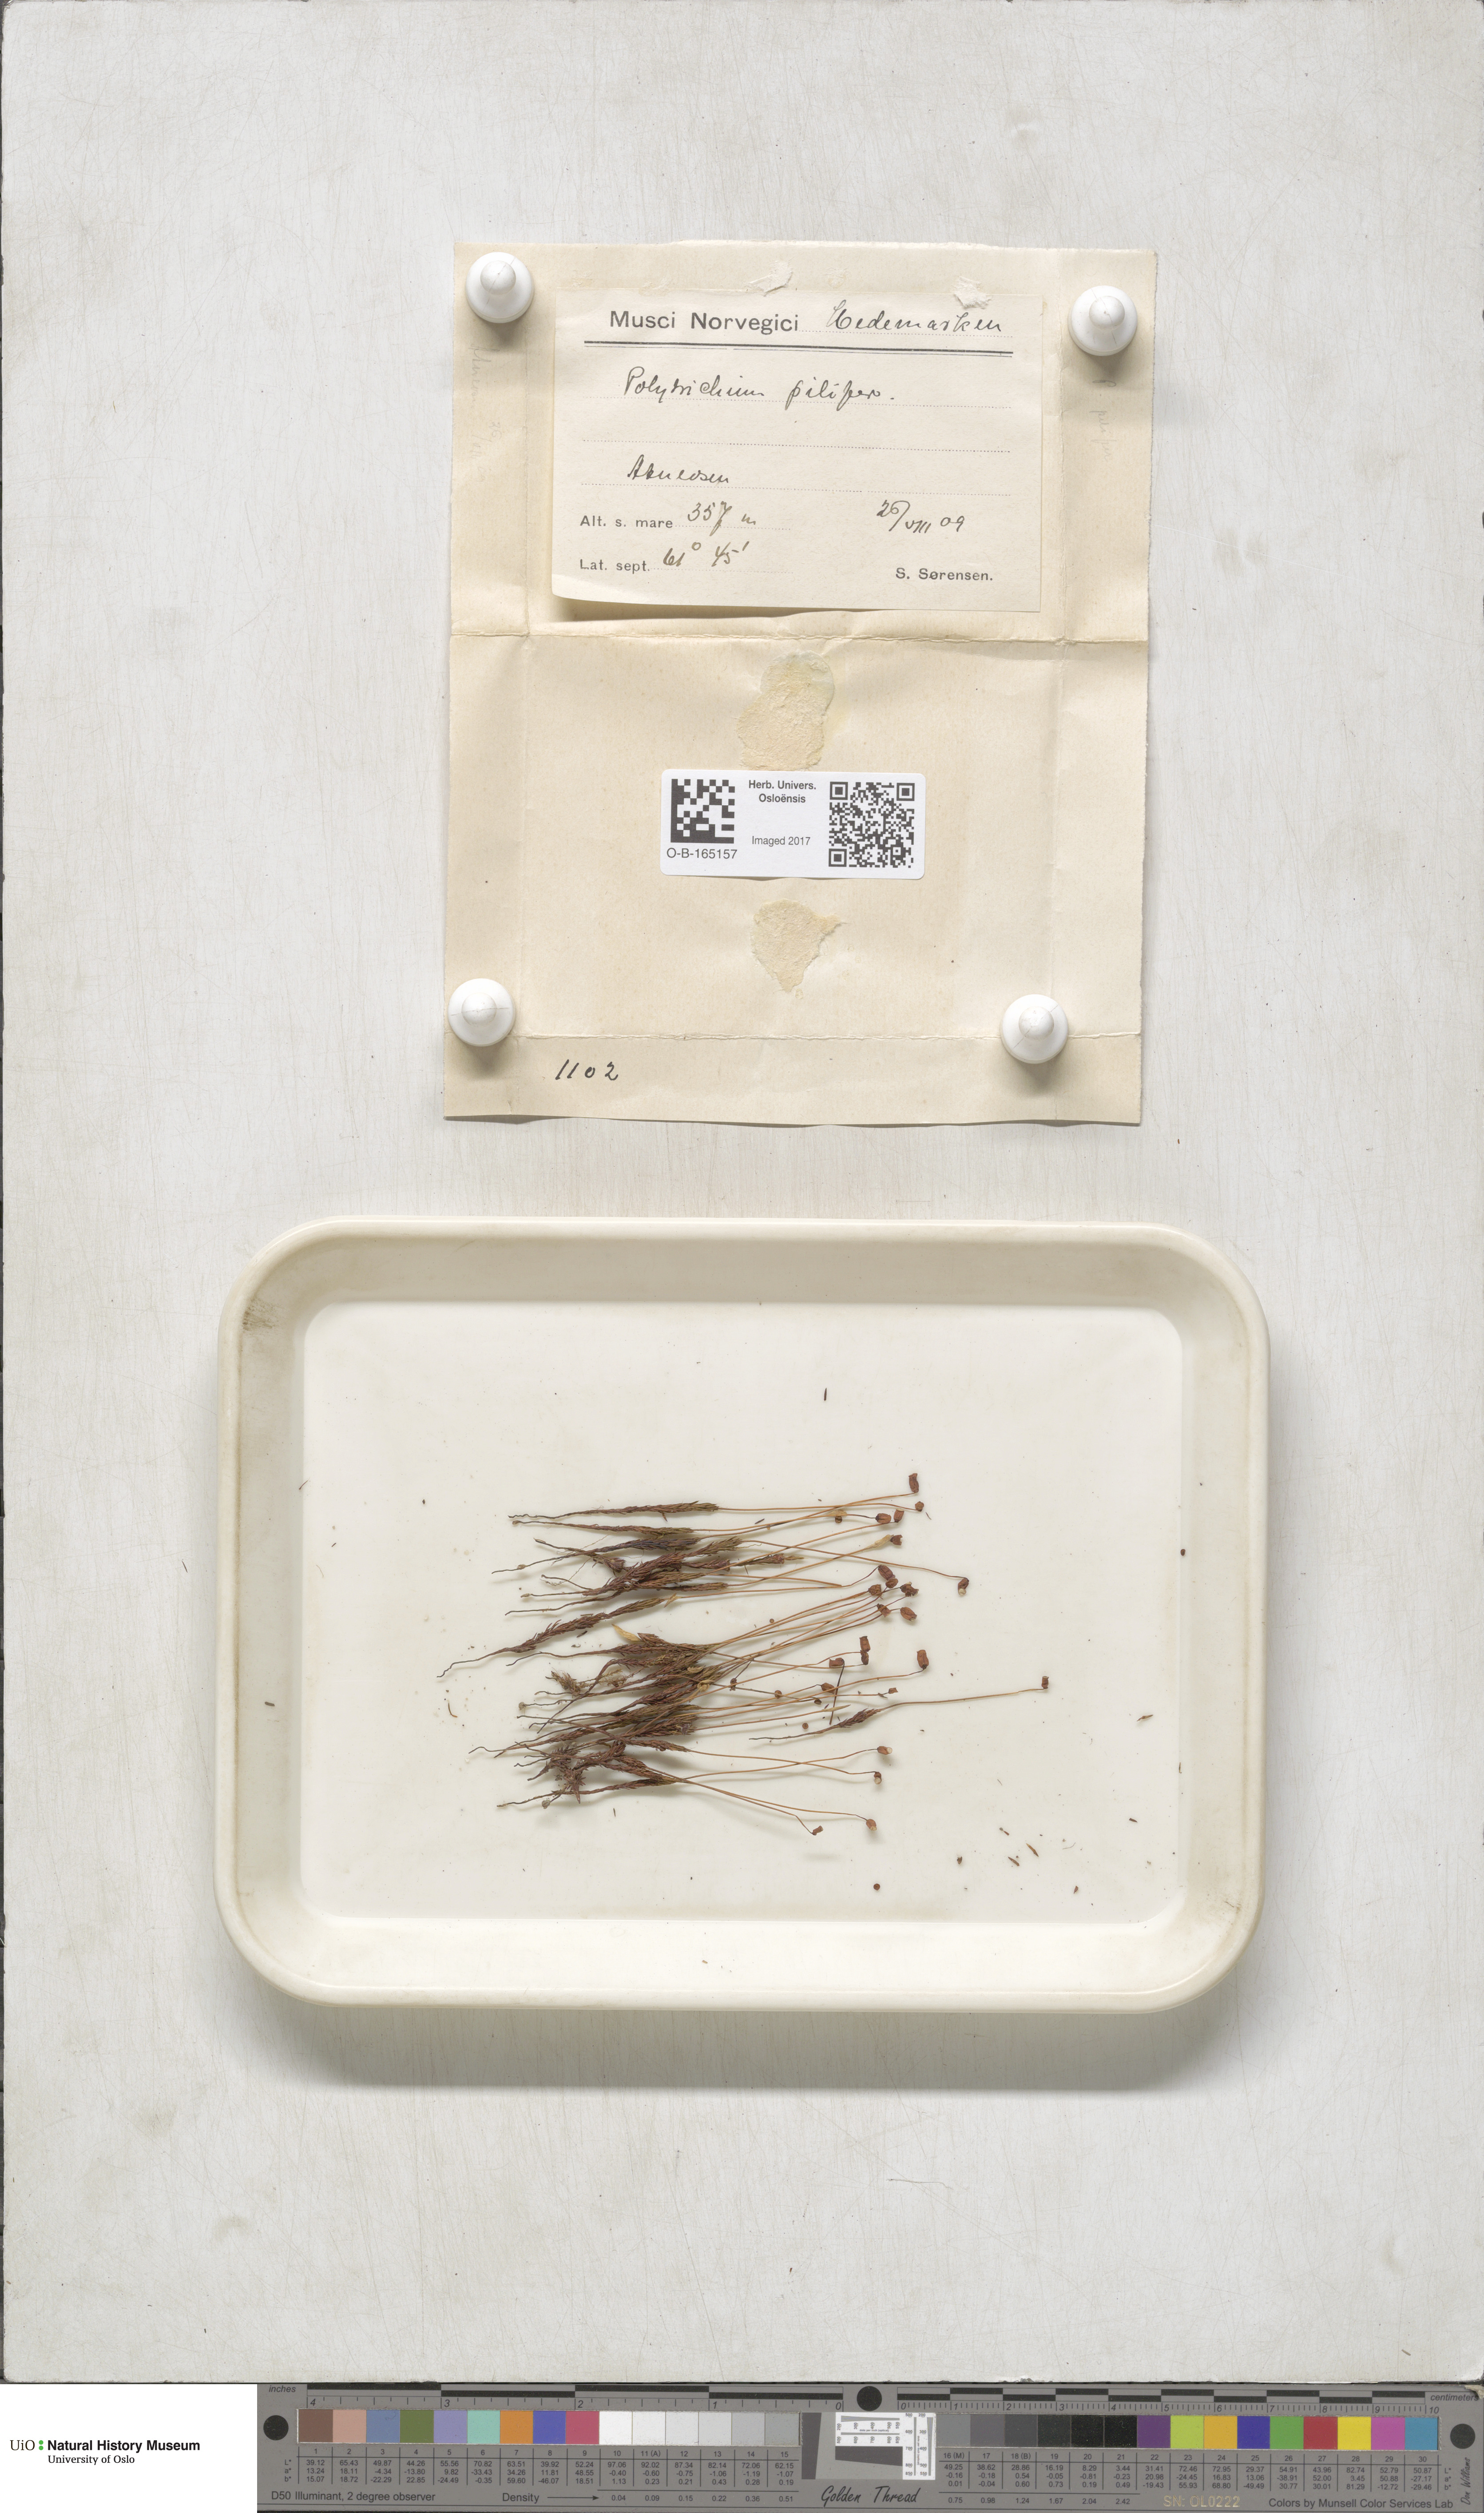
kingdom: Plantae
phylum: Bryophyta
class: Polytrichopsida
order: Polytrichales
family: Polytrichaceae
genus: Polytrichum
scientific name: Polytrichum piliferum
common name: Bristly haircap
